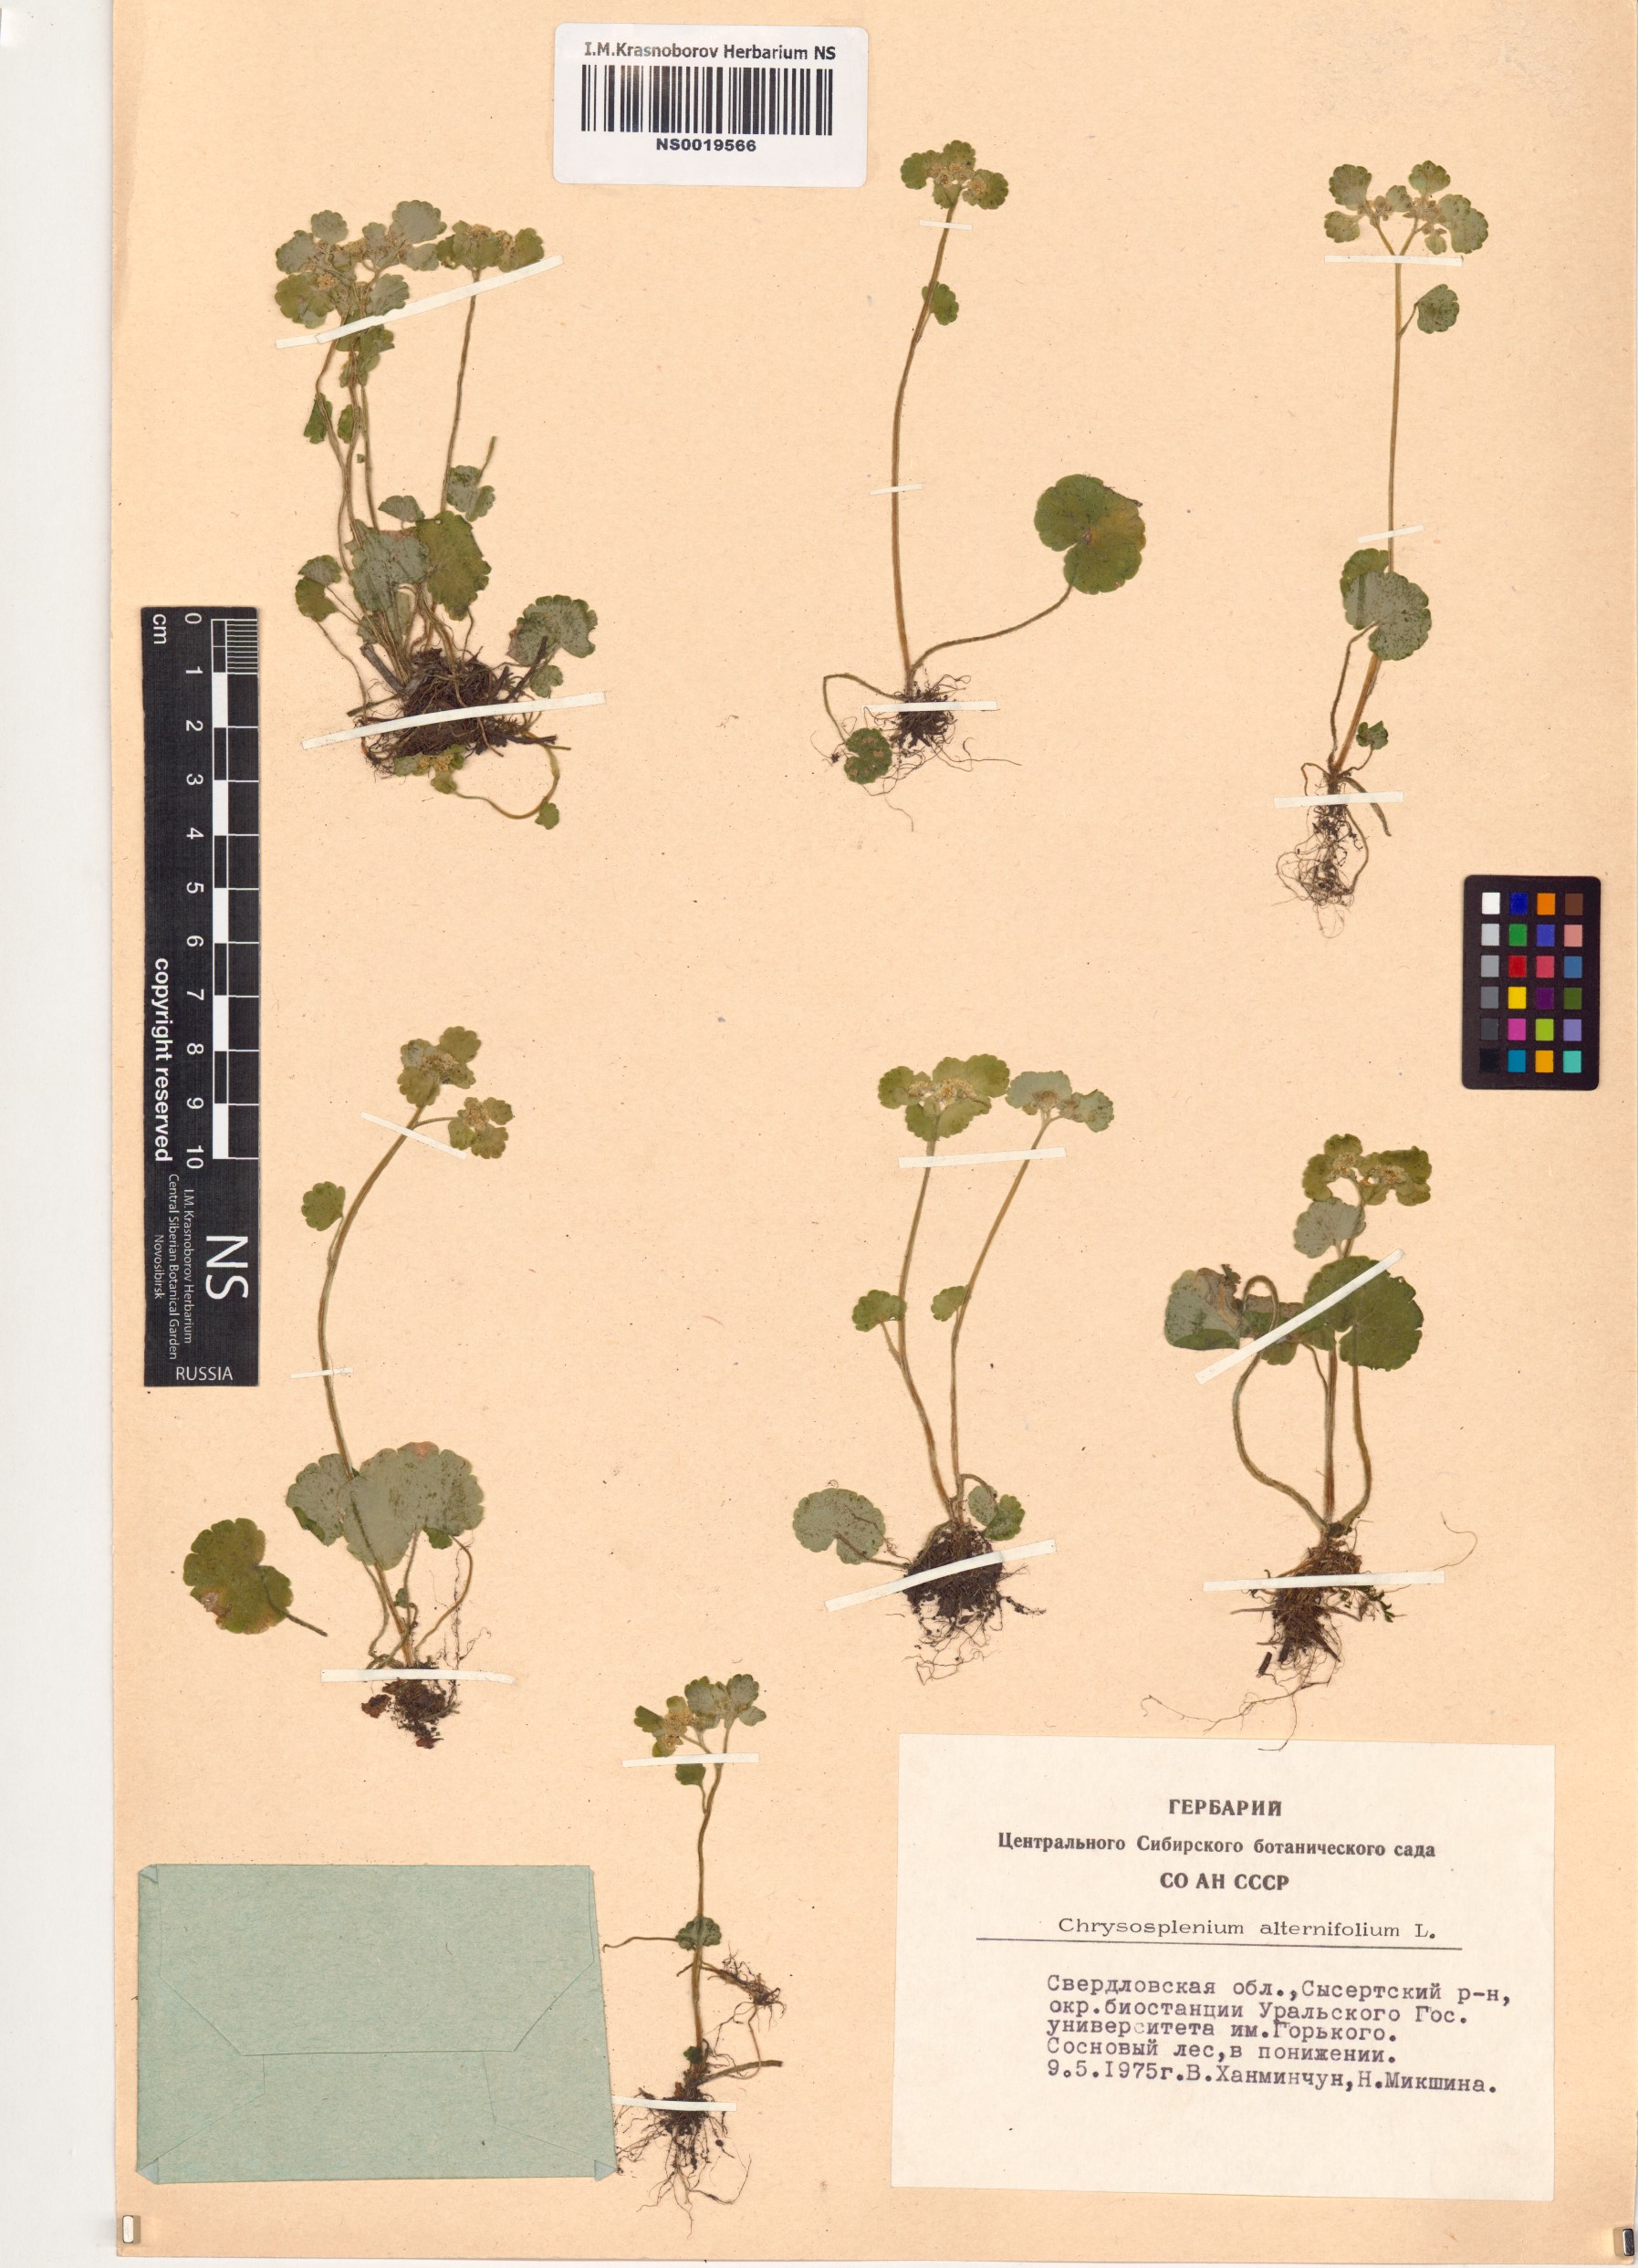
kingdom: Plantae
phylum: Tracheophyta
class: Magnoliopsida
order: Saxifragales
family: Saxifragaceae
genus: Chrysosplenium
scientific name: Chrysosplenium alternifolium
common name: Alternate-leaved golden-saxifrage
